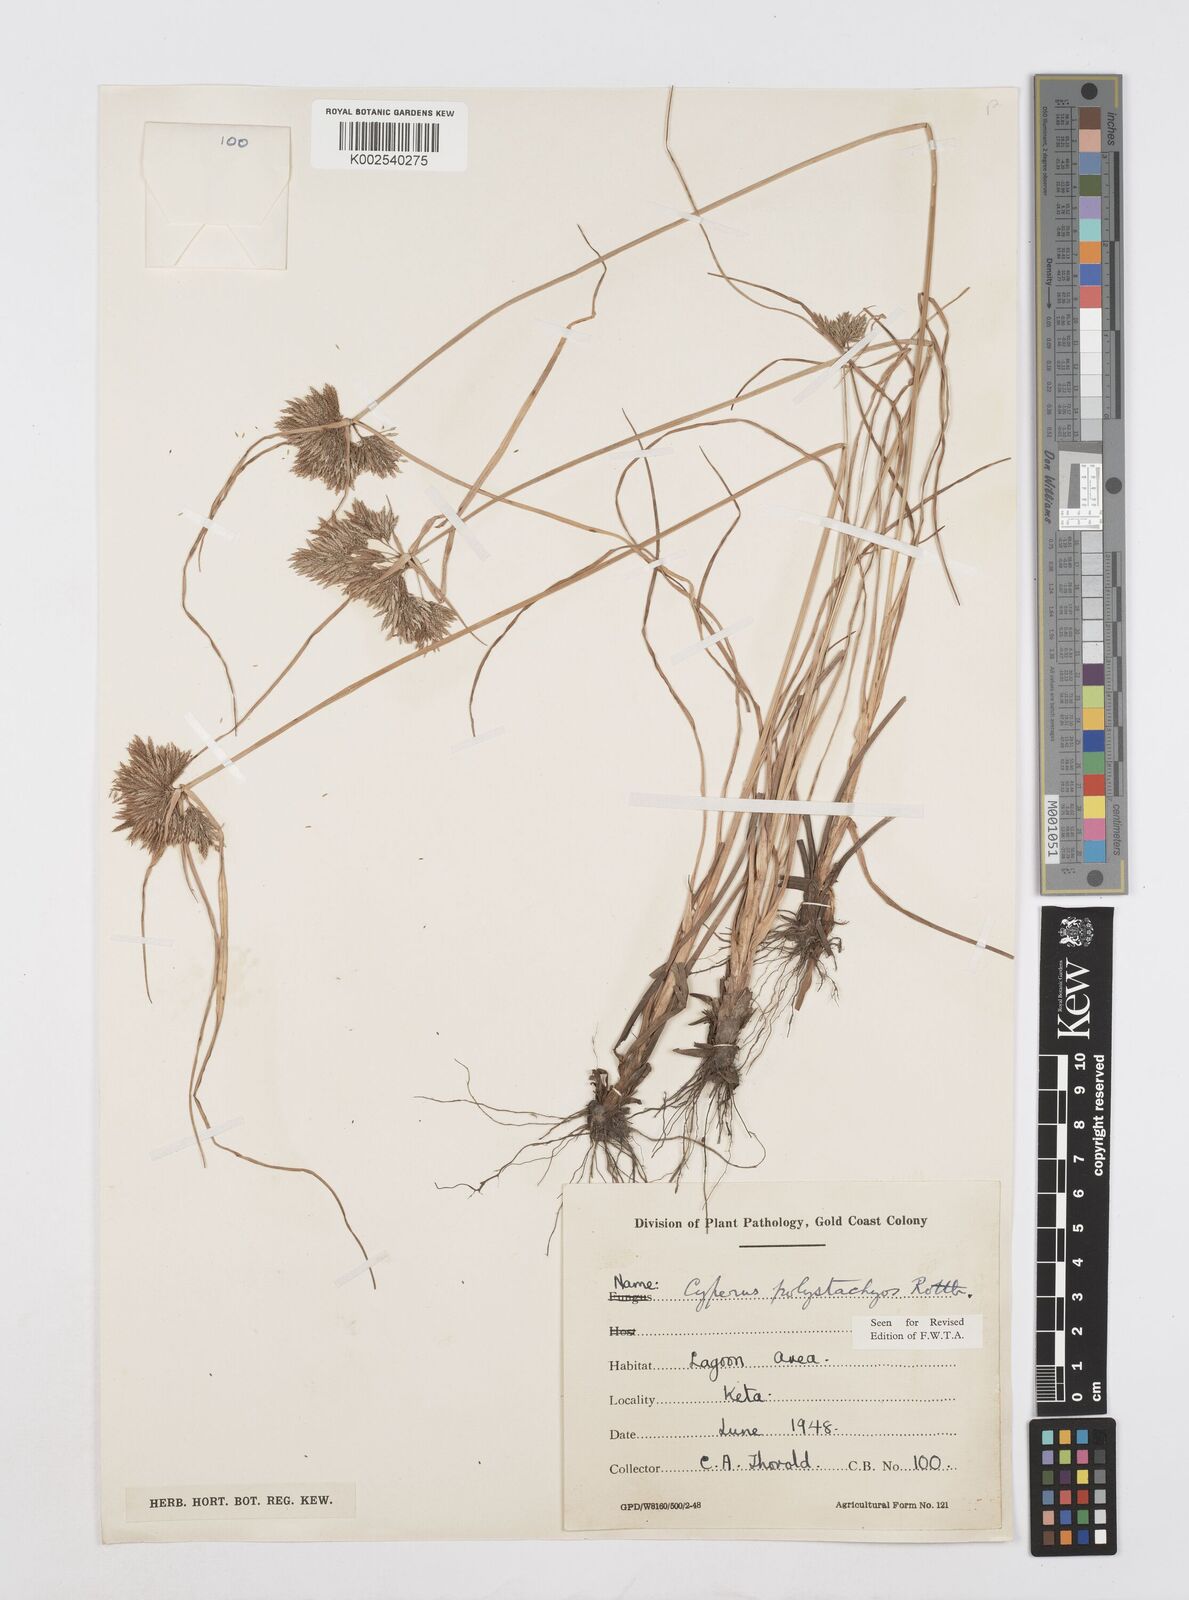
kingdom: Plantae
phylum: Tracheophyta
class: Liliopsida
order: Poales
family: Cyperaceae
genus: Cyperus
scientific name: Cyperus polystachyos
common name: Bunchy flat sedge
